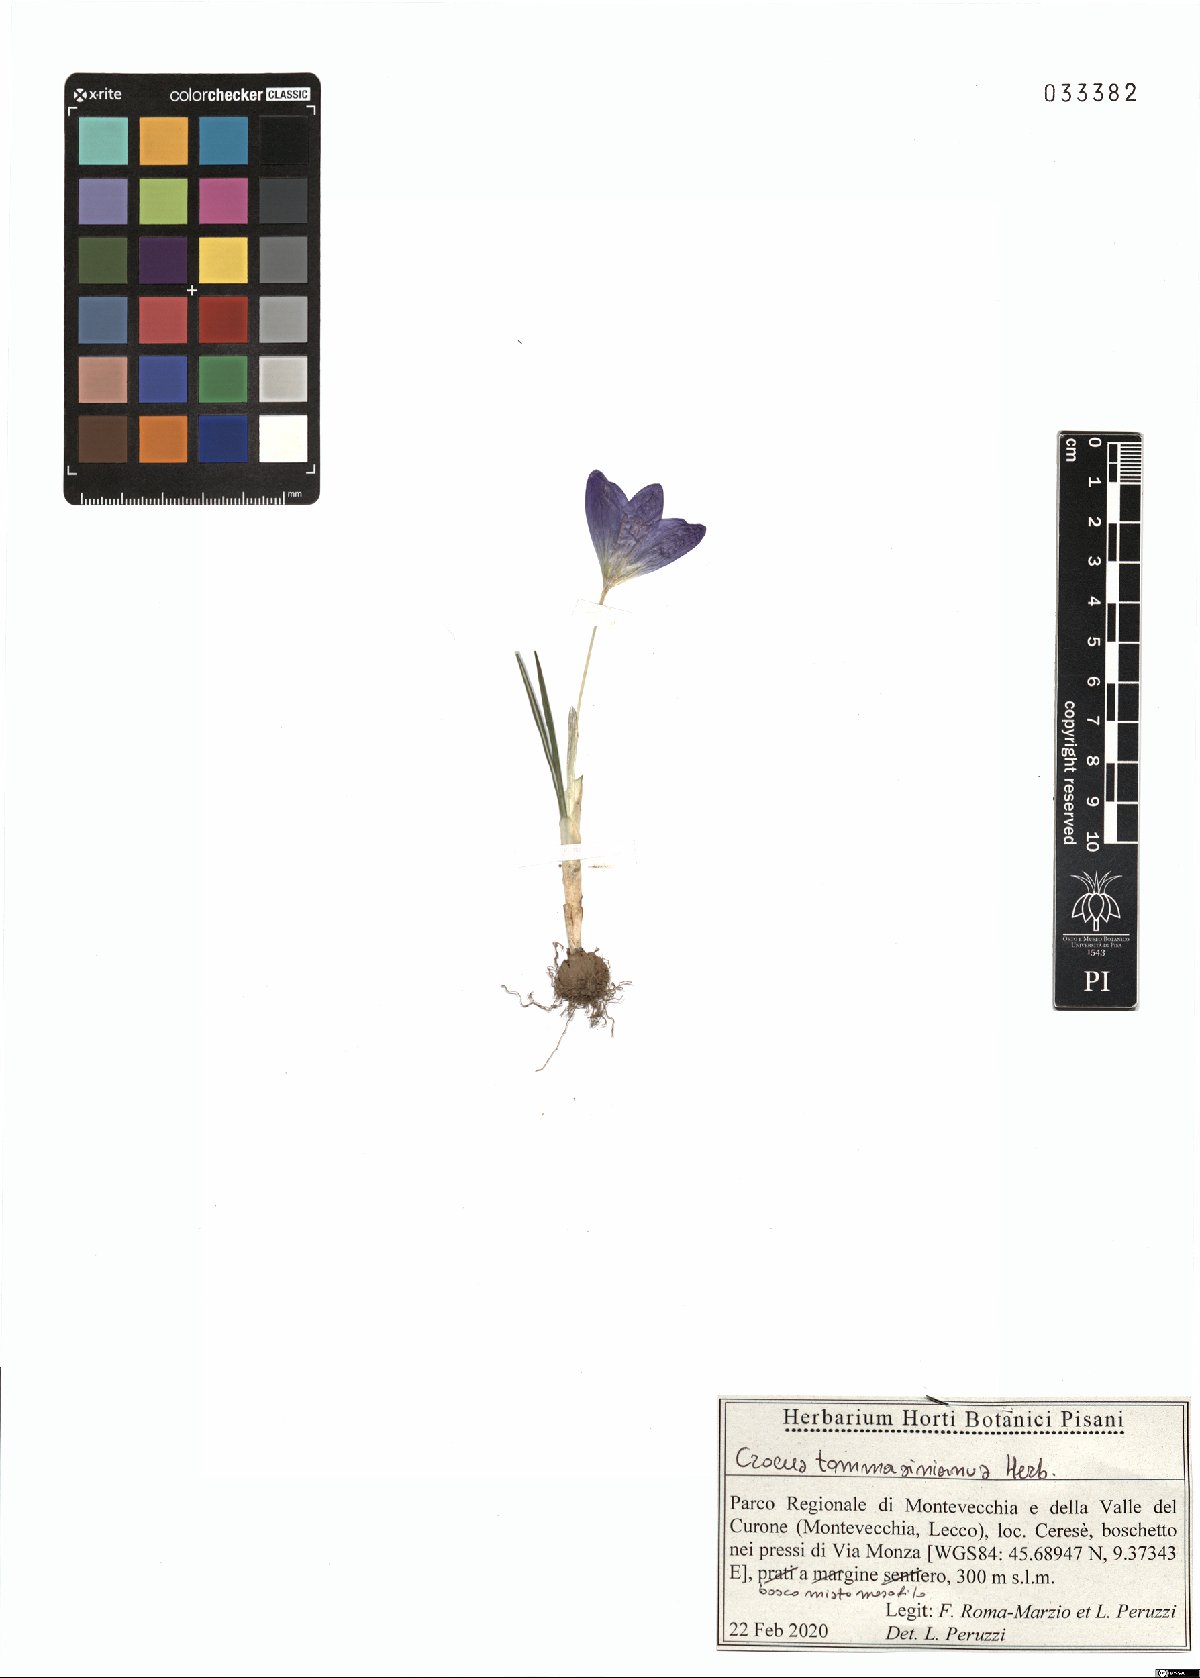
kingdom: Plantae
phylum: Tracheophyta
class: Liliopsida
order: Asparagales
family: Iridaceae
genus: Crocus
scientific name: Crocus tommasinianus
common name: Early crocus
